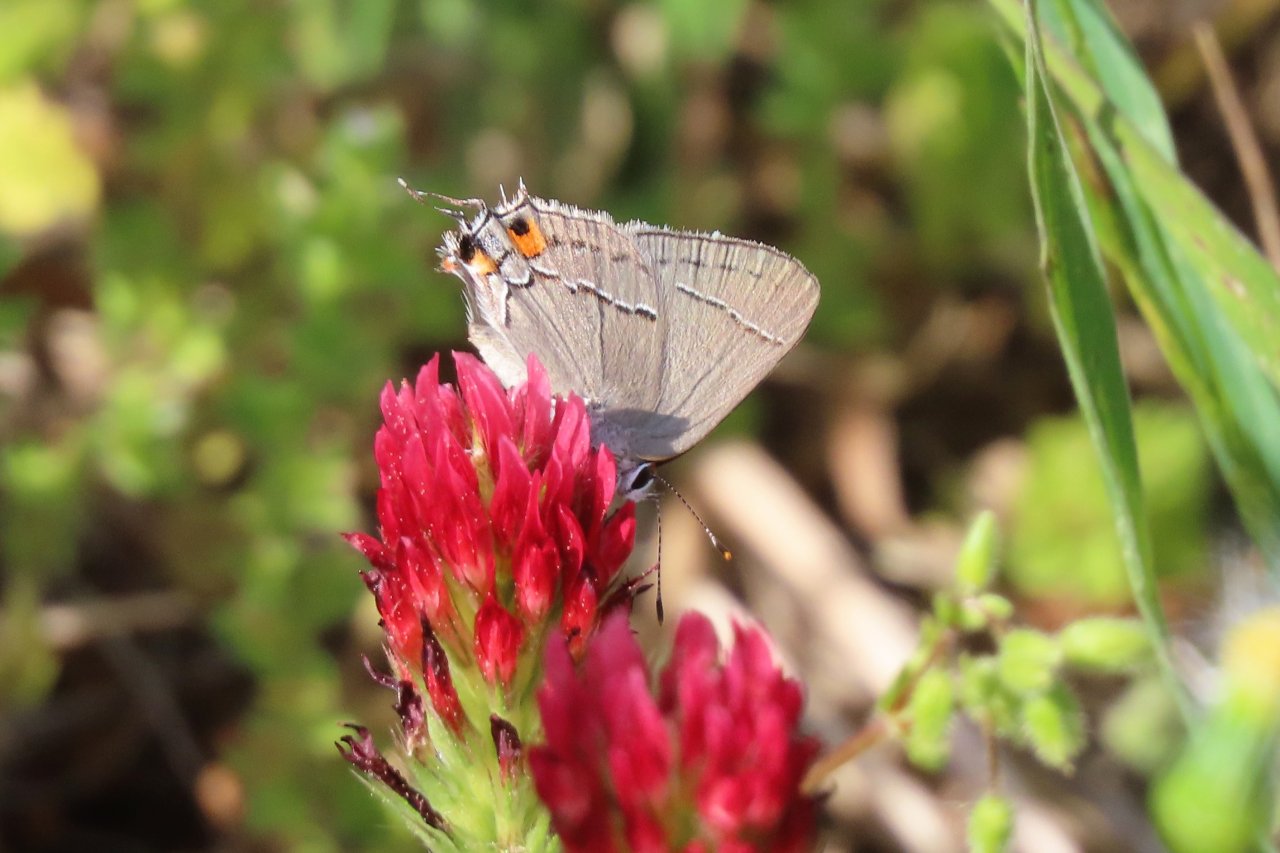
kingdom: Animalia
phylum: Arthropoda
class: Insecta
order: Lepidoptera
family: Lycaenidae
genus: Strymon
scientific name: Strymon melinus
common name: Gray Hairstreak
